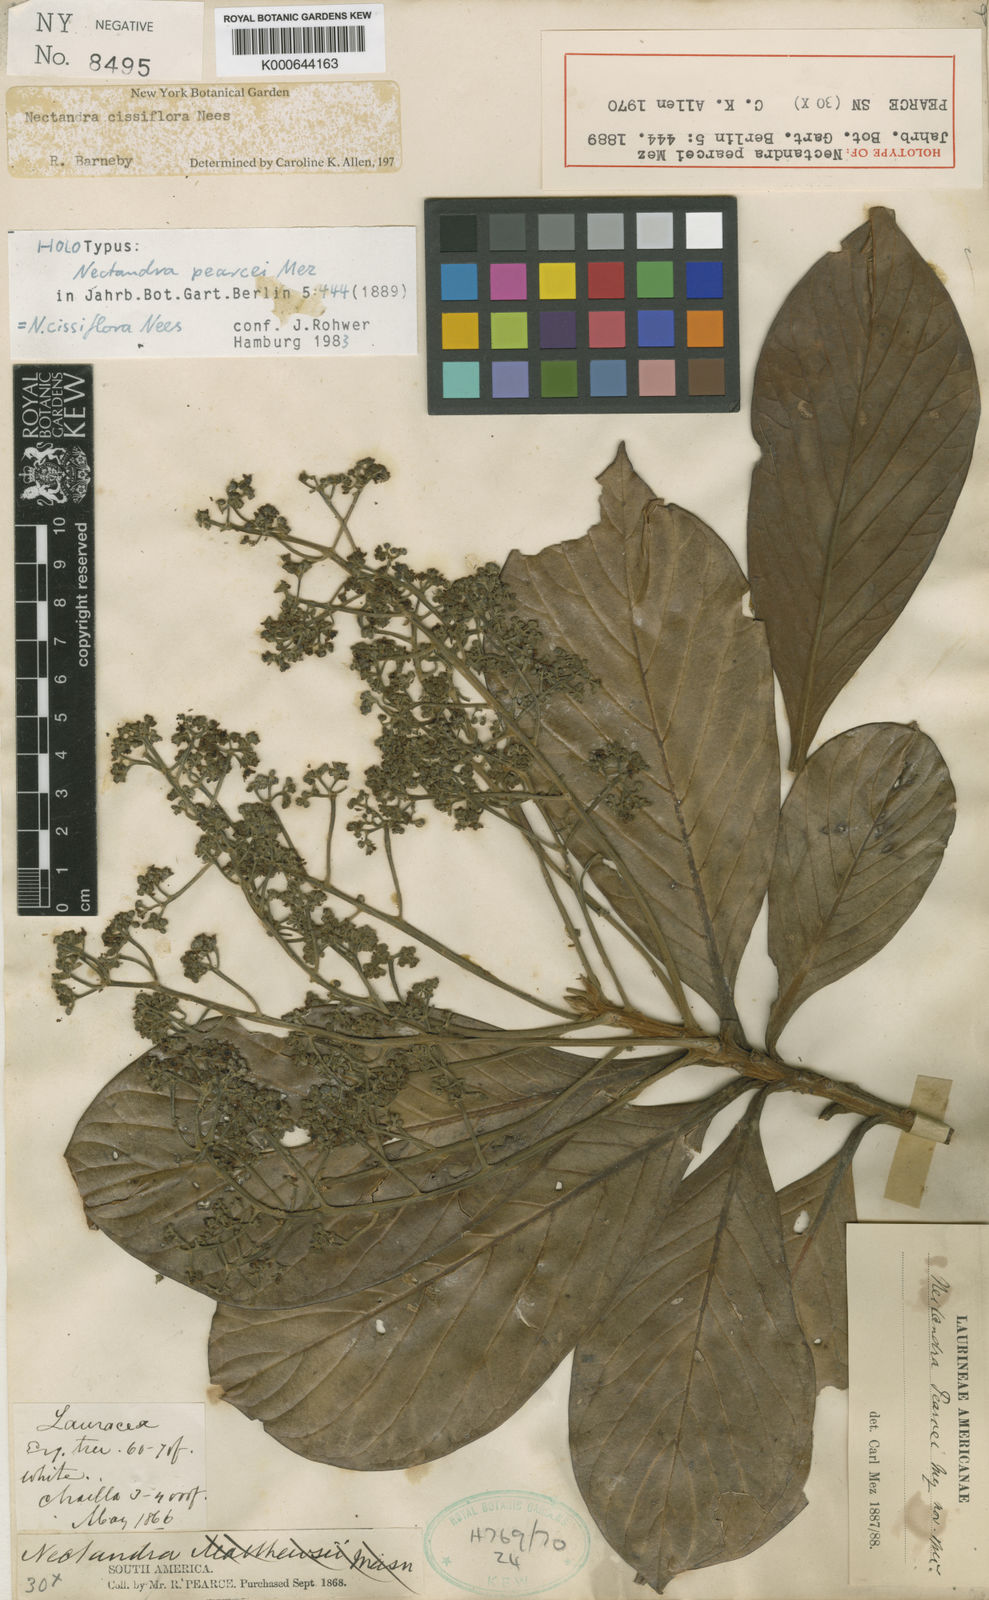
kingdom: Plantae
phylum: Tracheophyta
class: Magnoliopsida
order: Laurales
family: Lauraceae
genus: Nectandra
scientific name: Nectandra pearcei
